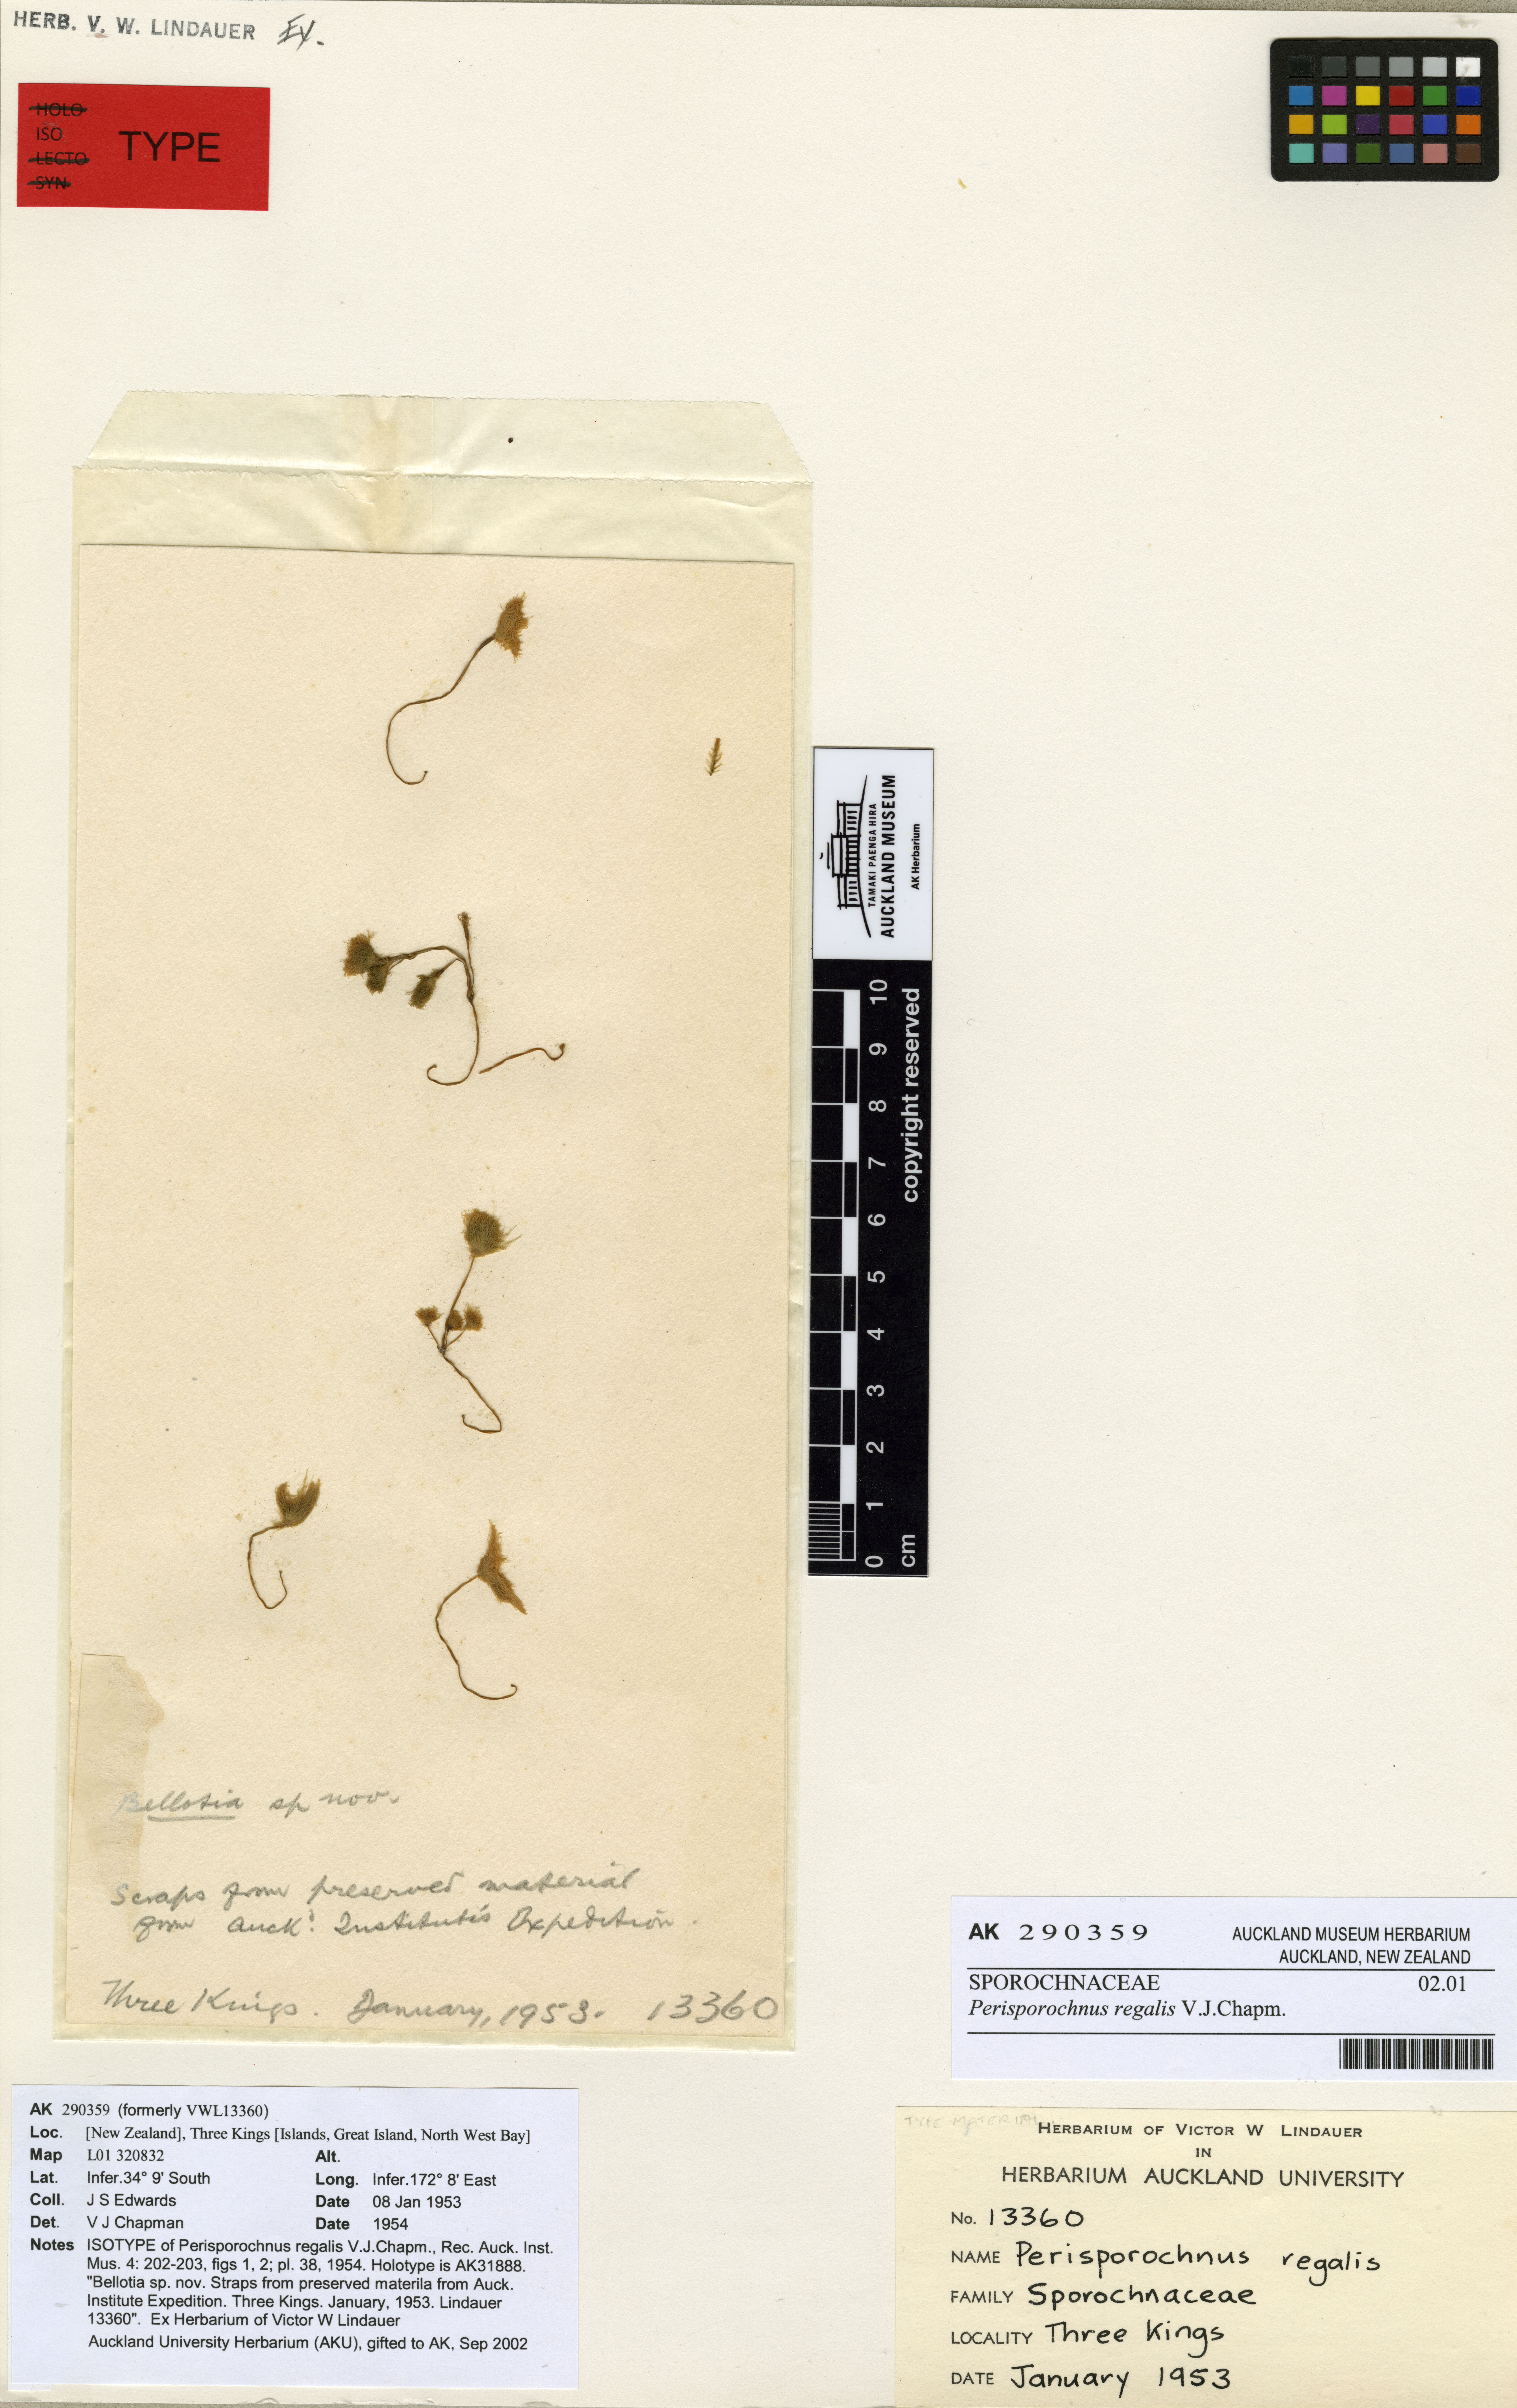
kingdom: Chromista
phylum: Ochrophyta
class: Phaeophyceae
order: Sporochnales
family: Sporochnaceae
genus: Perisporochnus
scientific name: Perisporochnus regalis
